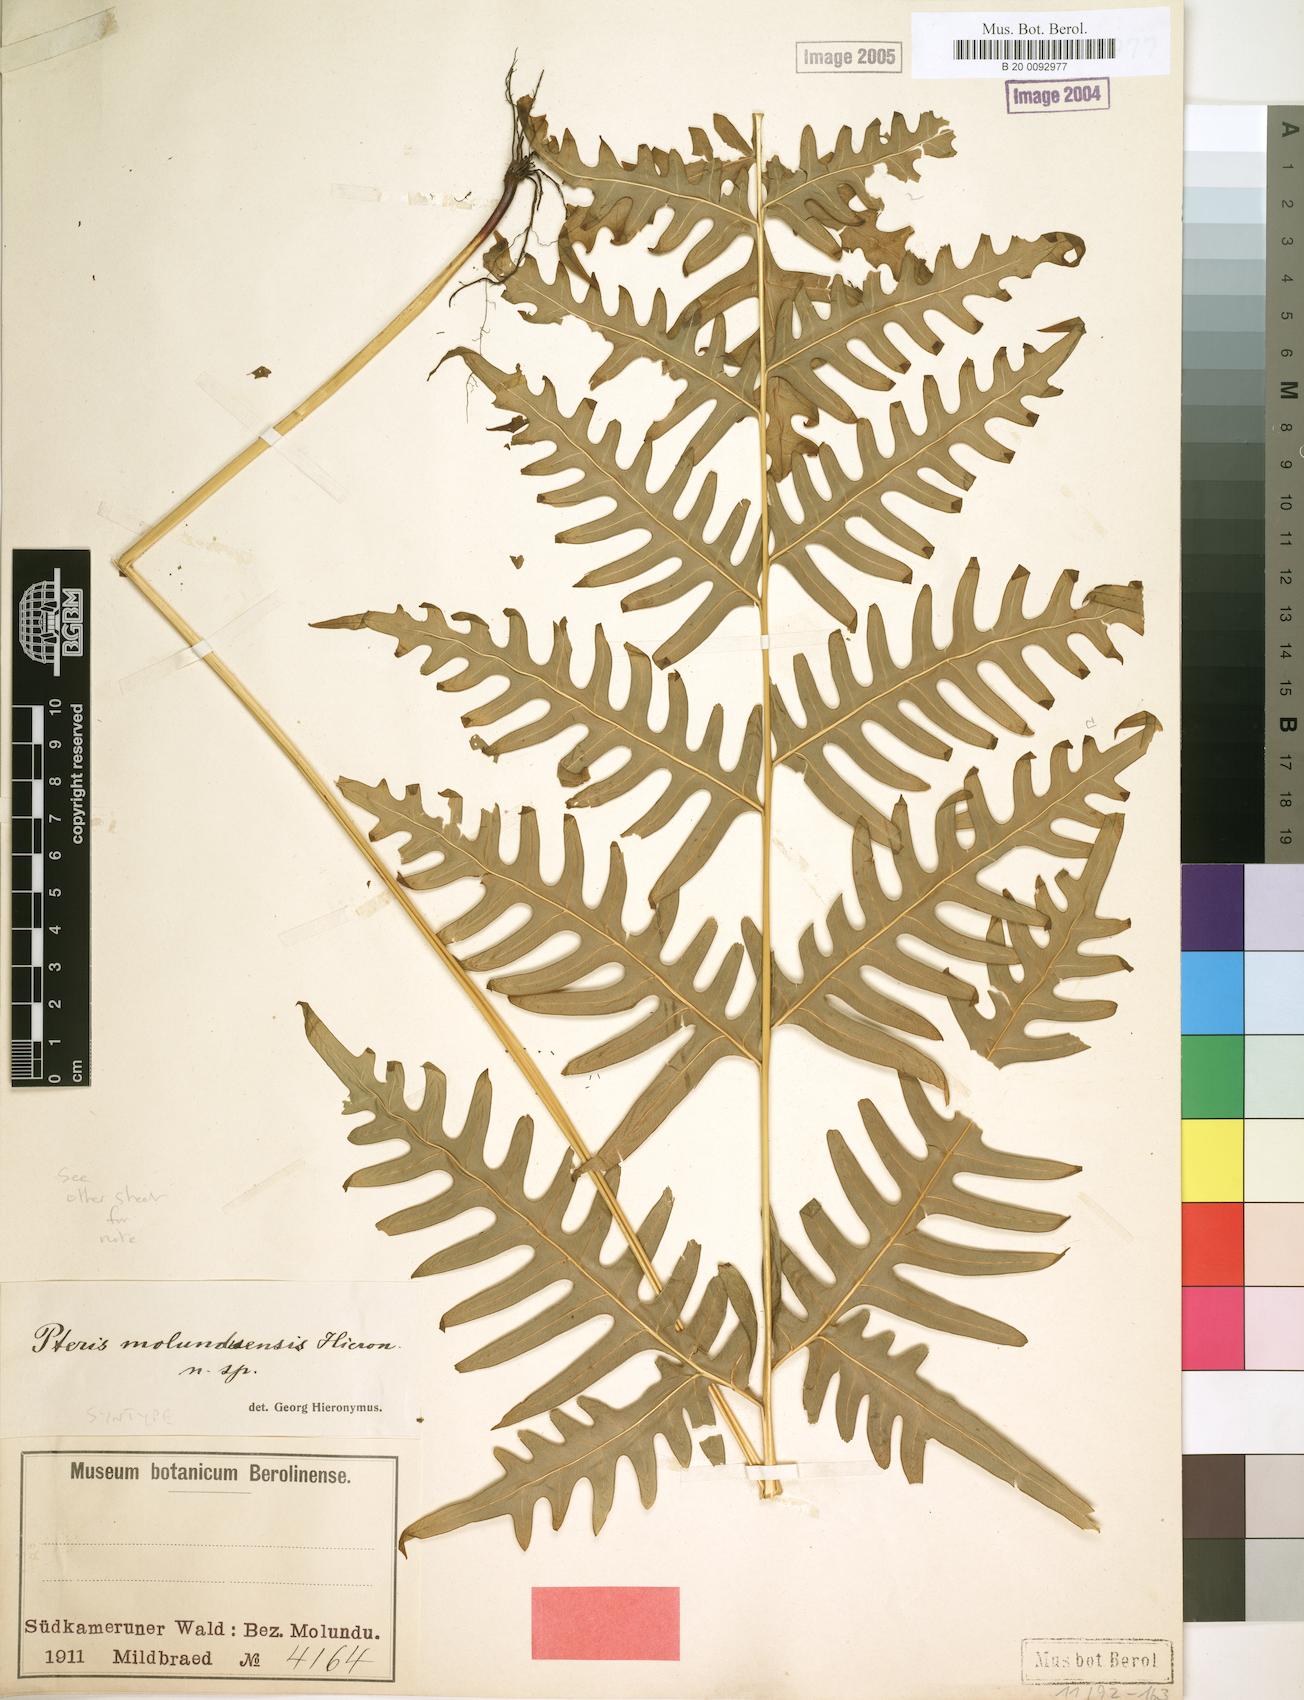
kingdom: Plantae
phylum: Tracheophyta
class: Polypodiopsida
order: Polypodiales
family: Pteridaceae
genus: Pteris
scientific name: Pteris similis
